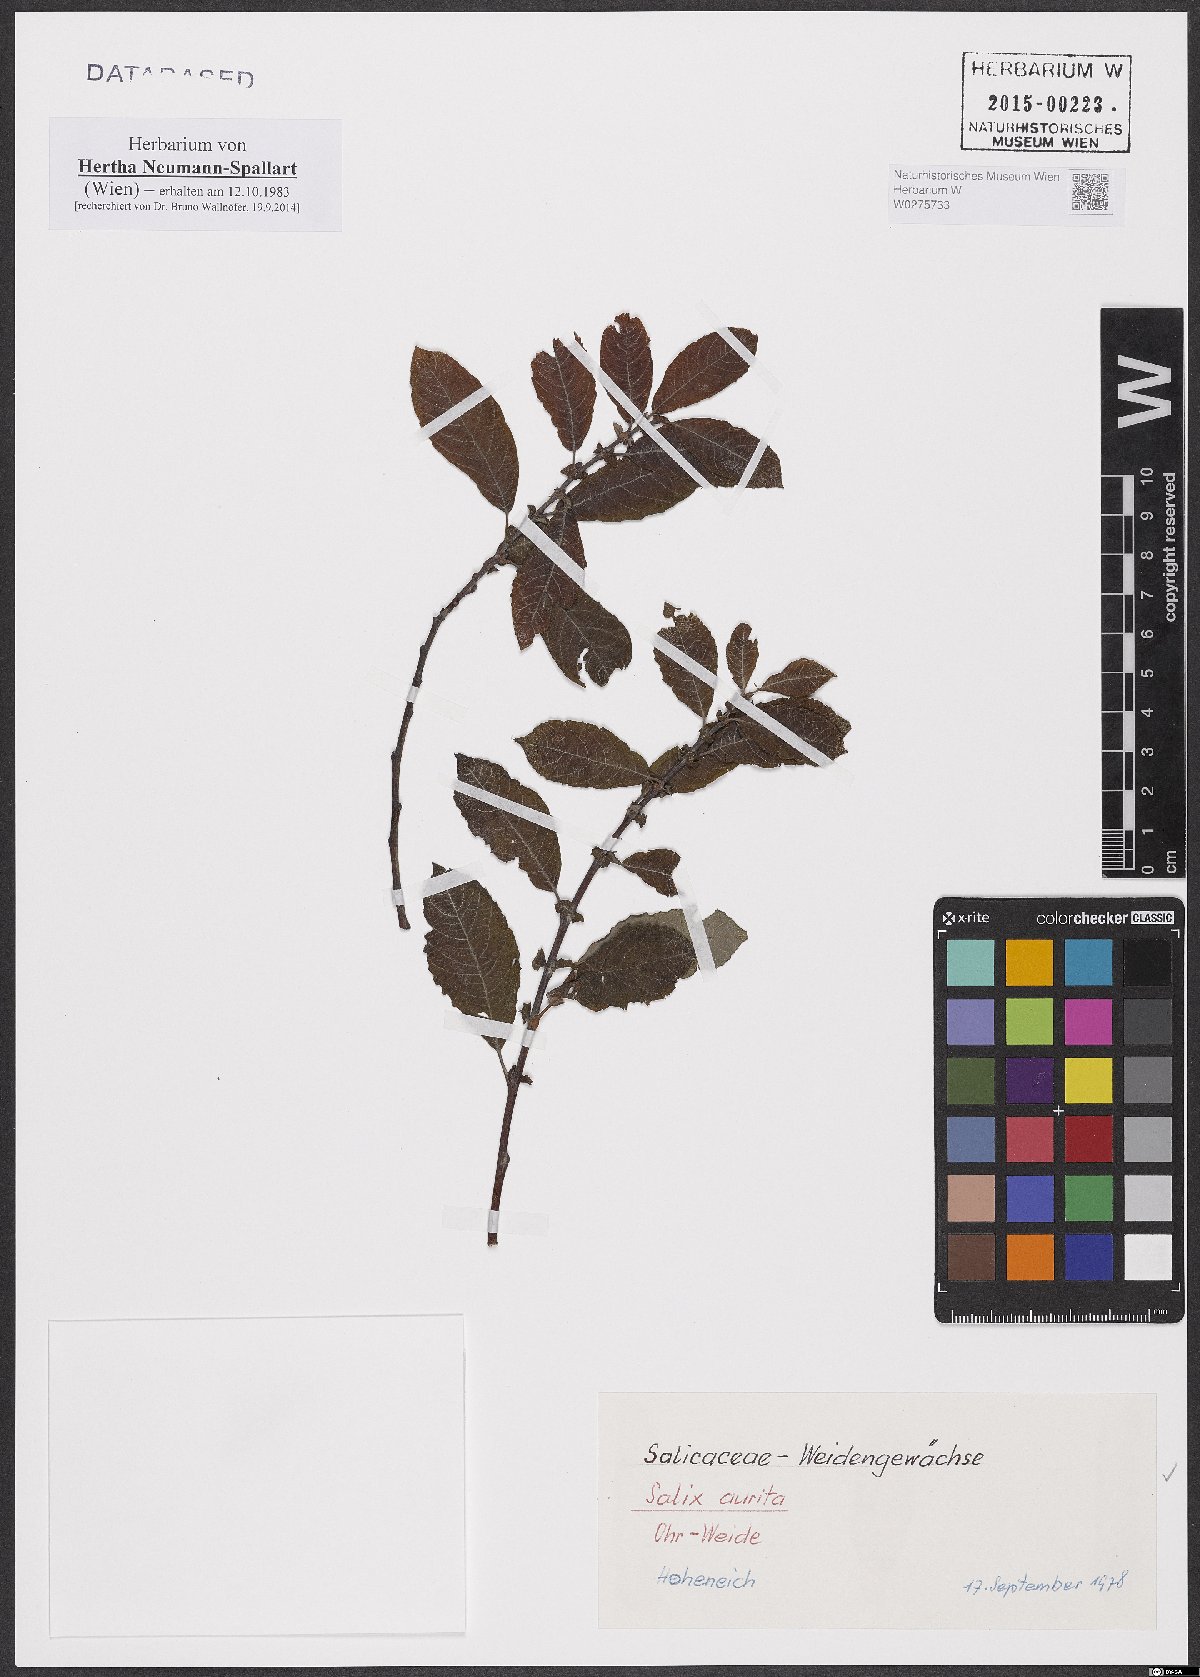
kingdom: Plantae
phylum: Tracheophyta
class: Magnoliopsida
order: Malpighiales
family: Salicaceae
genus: Salix
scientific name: Salix aurita
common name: Eared willow
